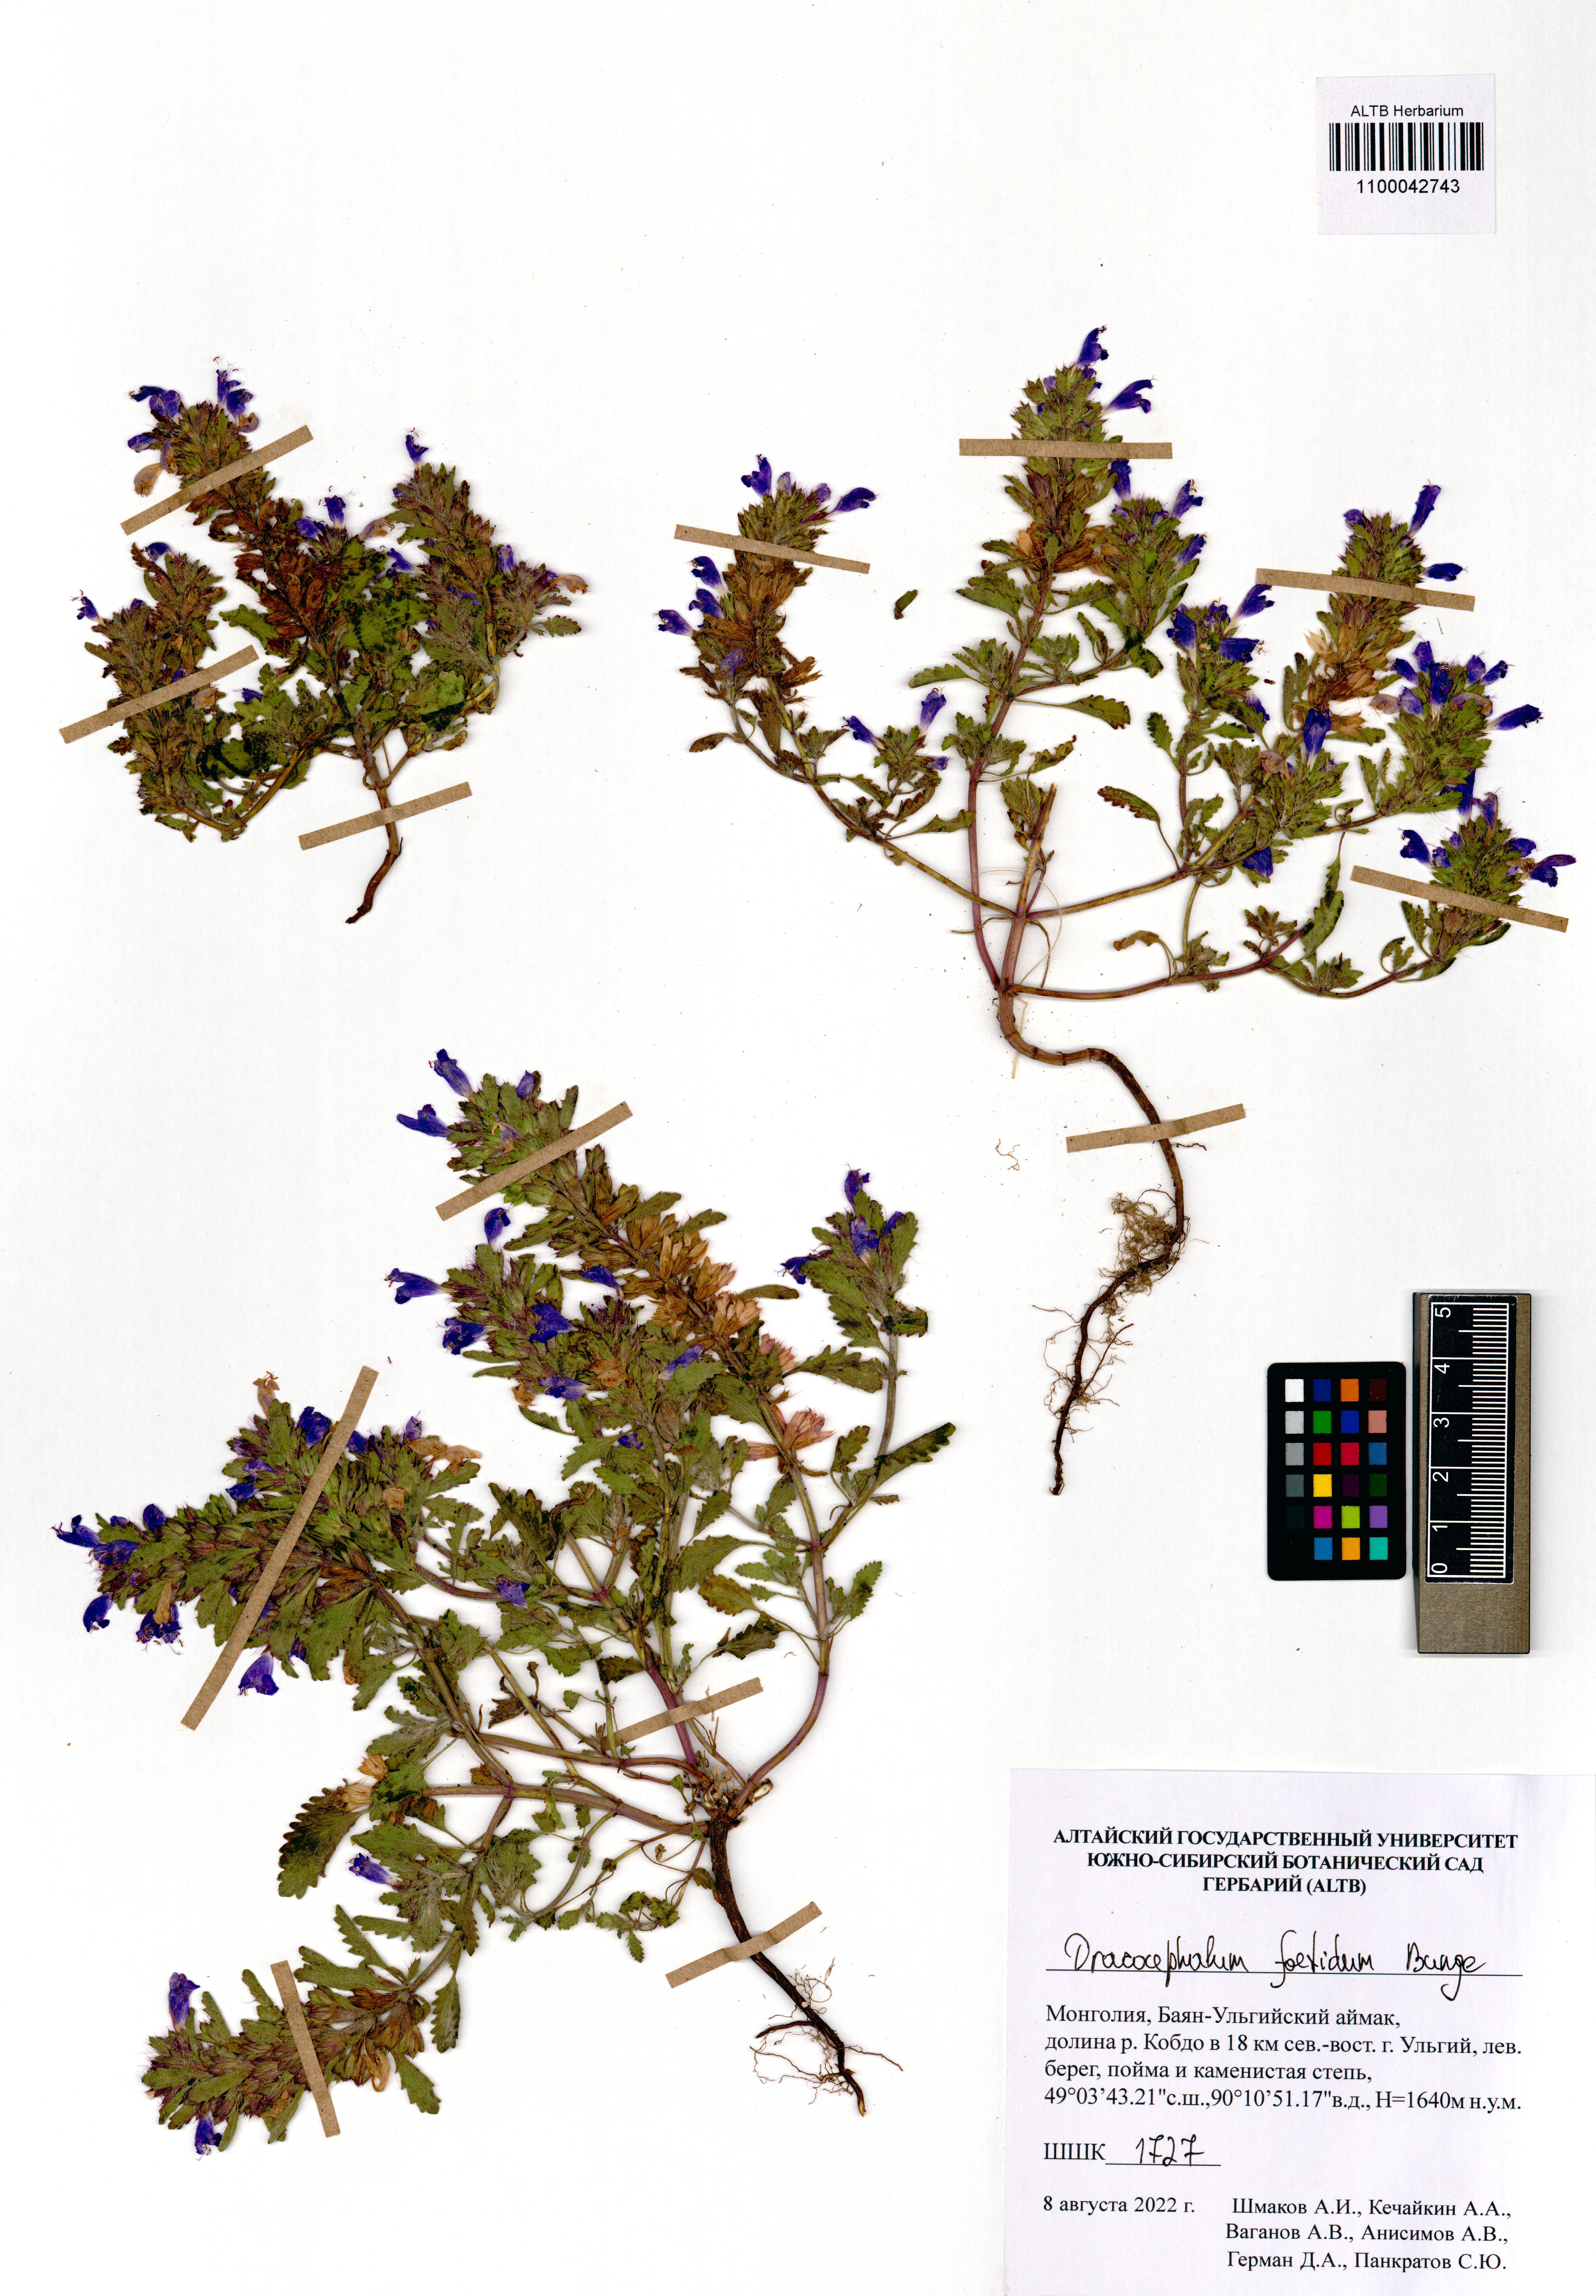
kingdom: Plantae
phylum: Tracheophyta
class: Magnoliopsida
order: Lamiales
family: Lamiaceae
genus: Dracocephalum
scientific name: Dracocephalum foetidum
